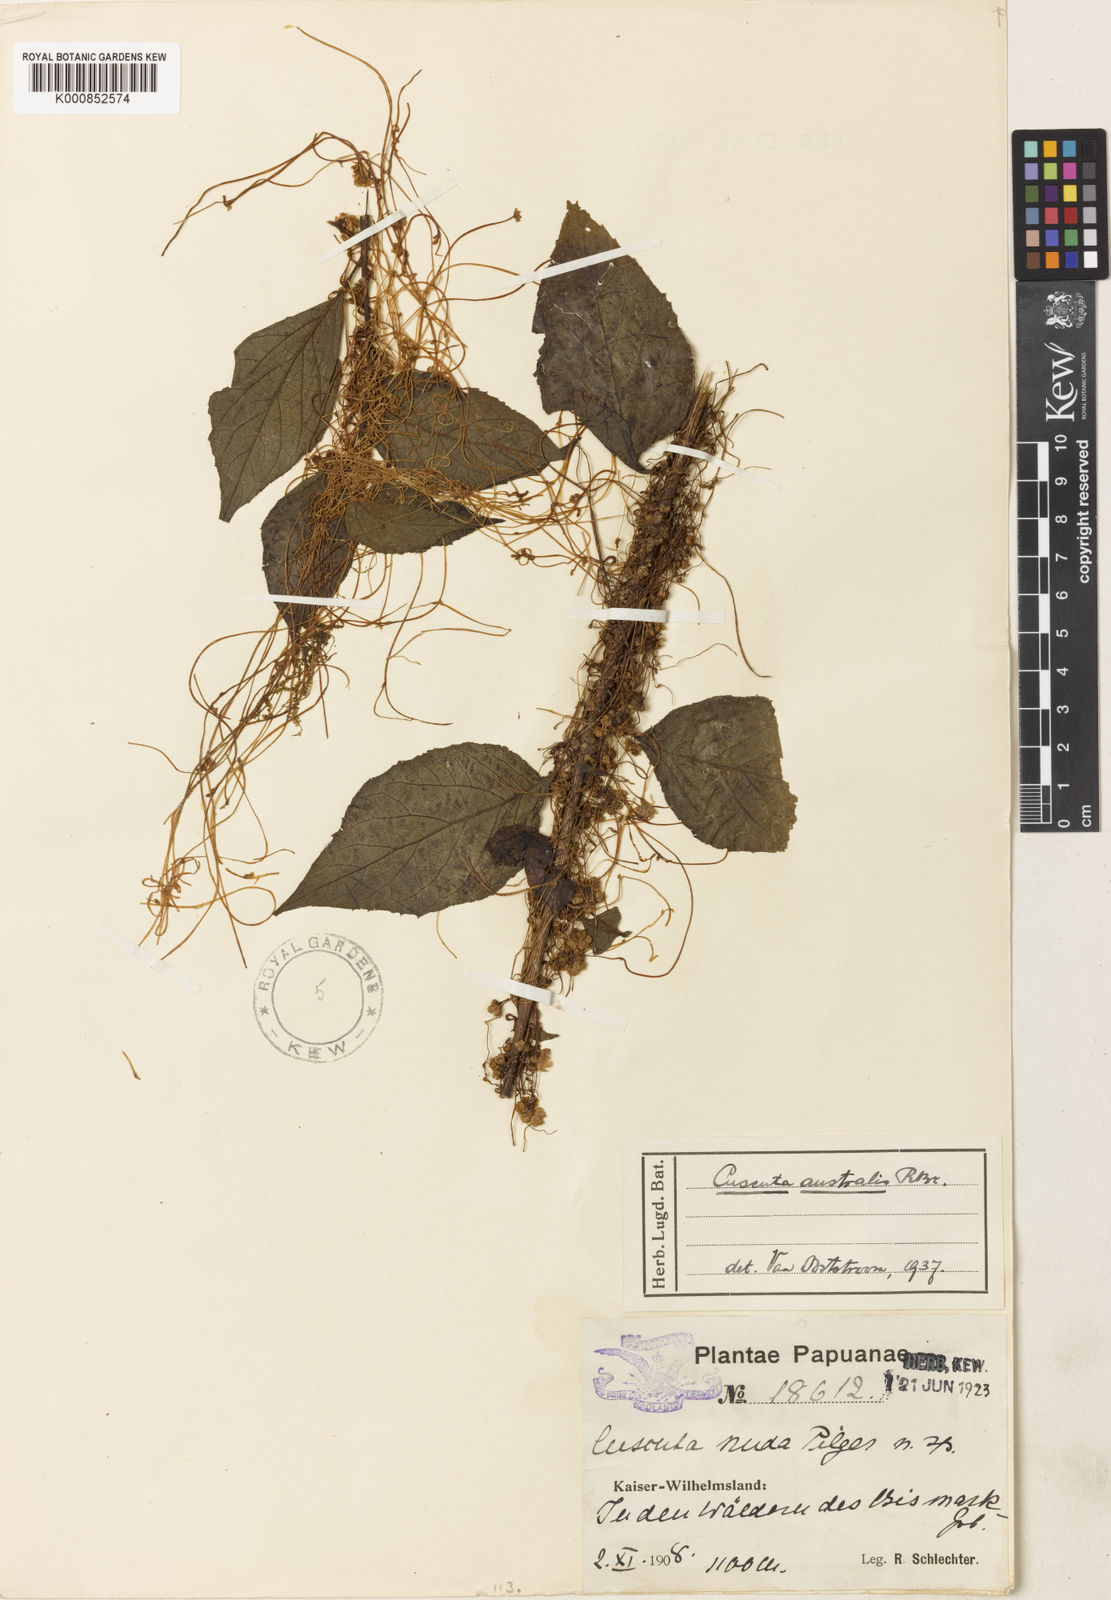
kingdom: Plantae
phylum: Tracheophyta
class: Magnoliopsida
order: Solanales
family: Convolvulaceae
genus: Cuscuta
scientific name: Cuscuta australis
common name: Australian dodder
